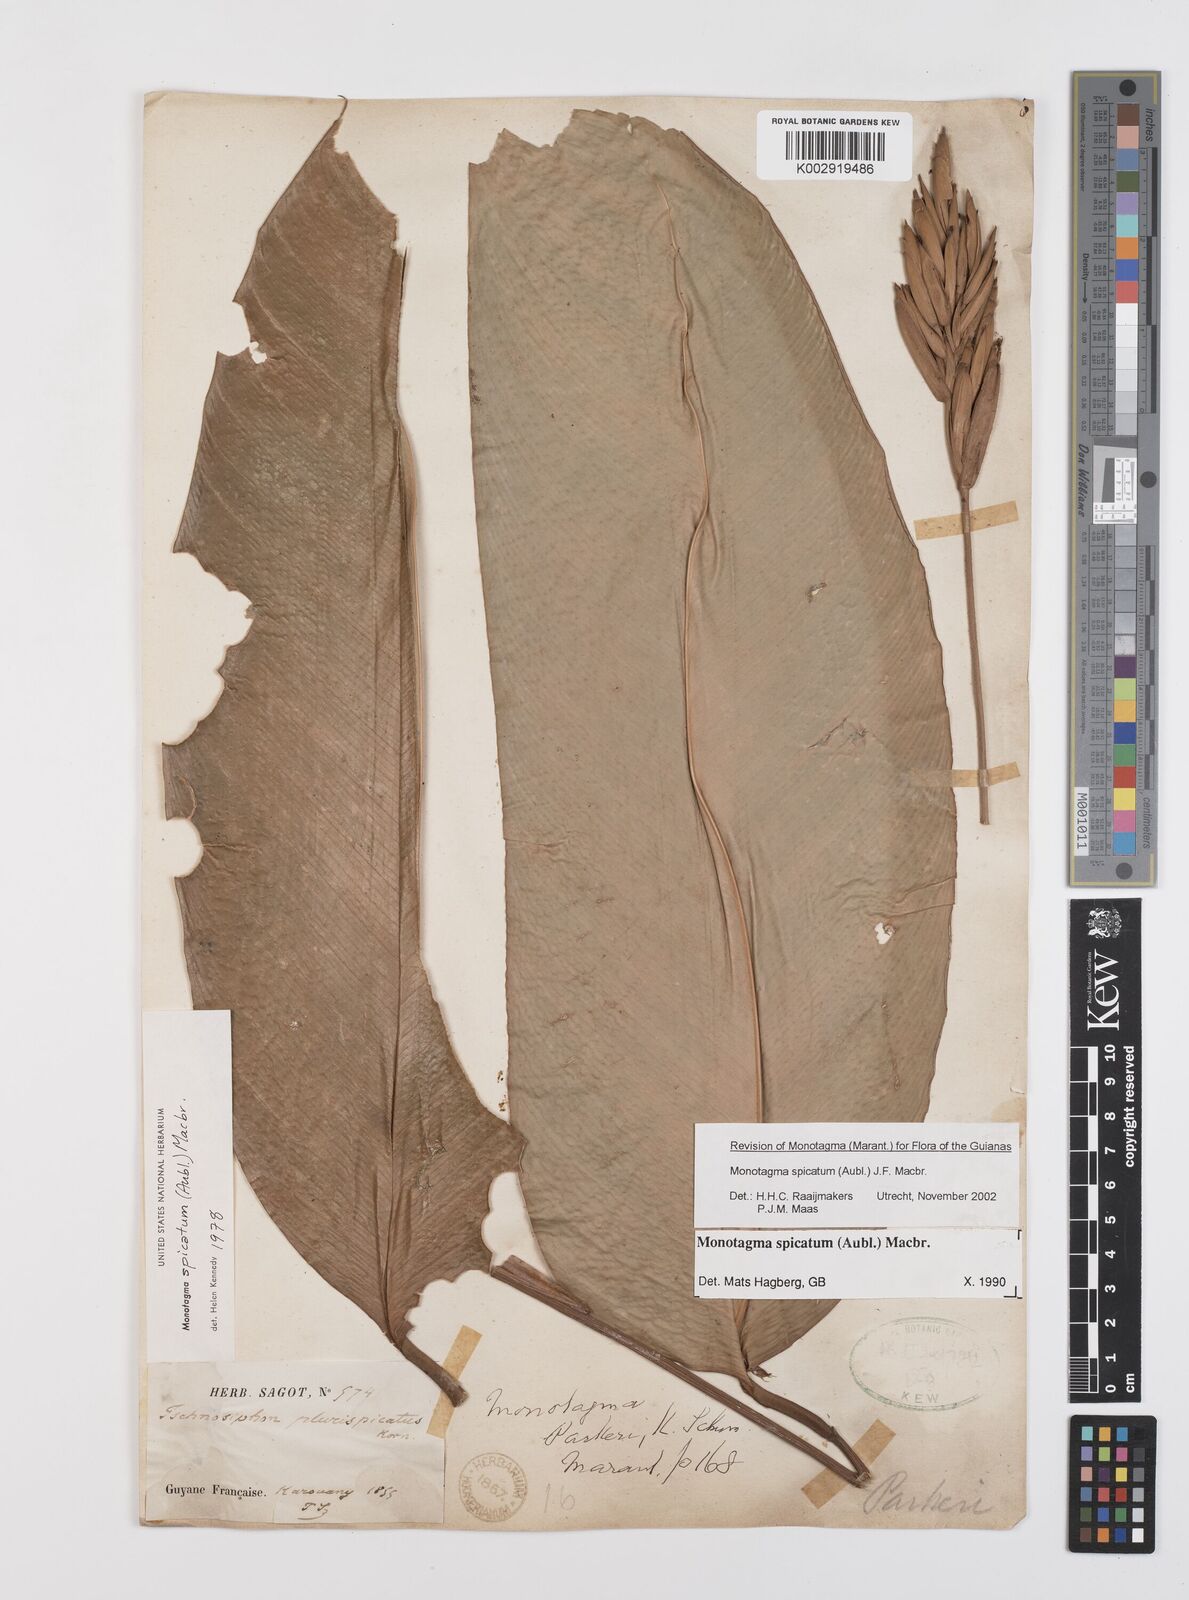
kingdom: Plantae
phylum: Tracheophyta
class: Liliopsida
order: Zingiberales
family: Marantaceae
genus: Monotagma
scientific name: Monotagma spicatum
